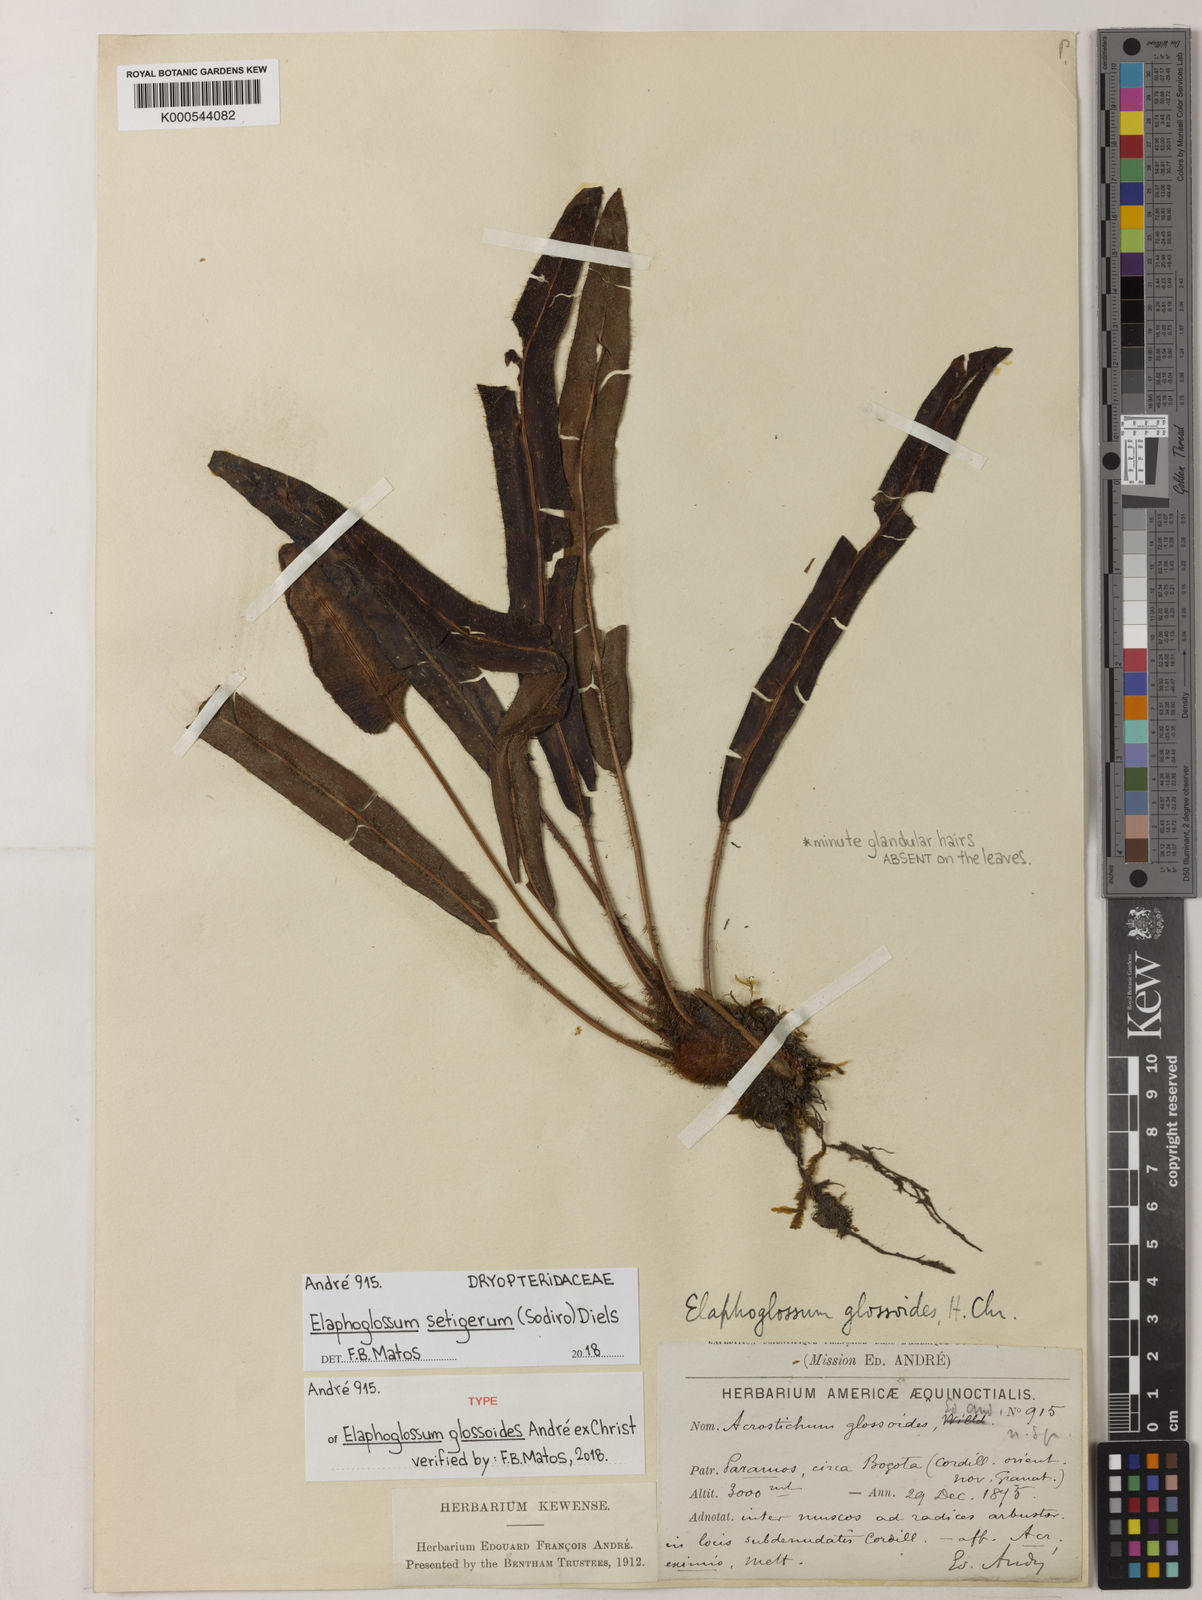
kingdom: Plantae
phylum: Tracheophyta
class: Polypodiopsida
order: Polypodiales
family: Dryopteridaceae
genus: Elaphoglossum
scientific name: Elaphoglossum setigerum
